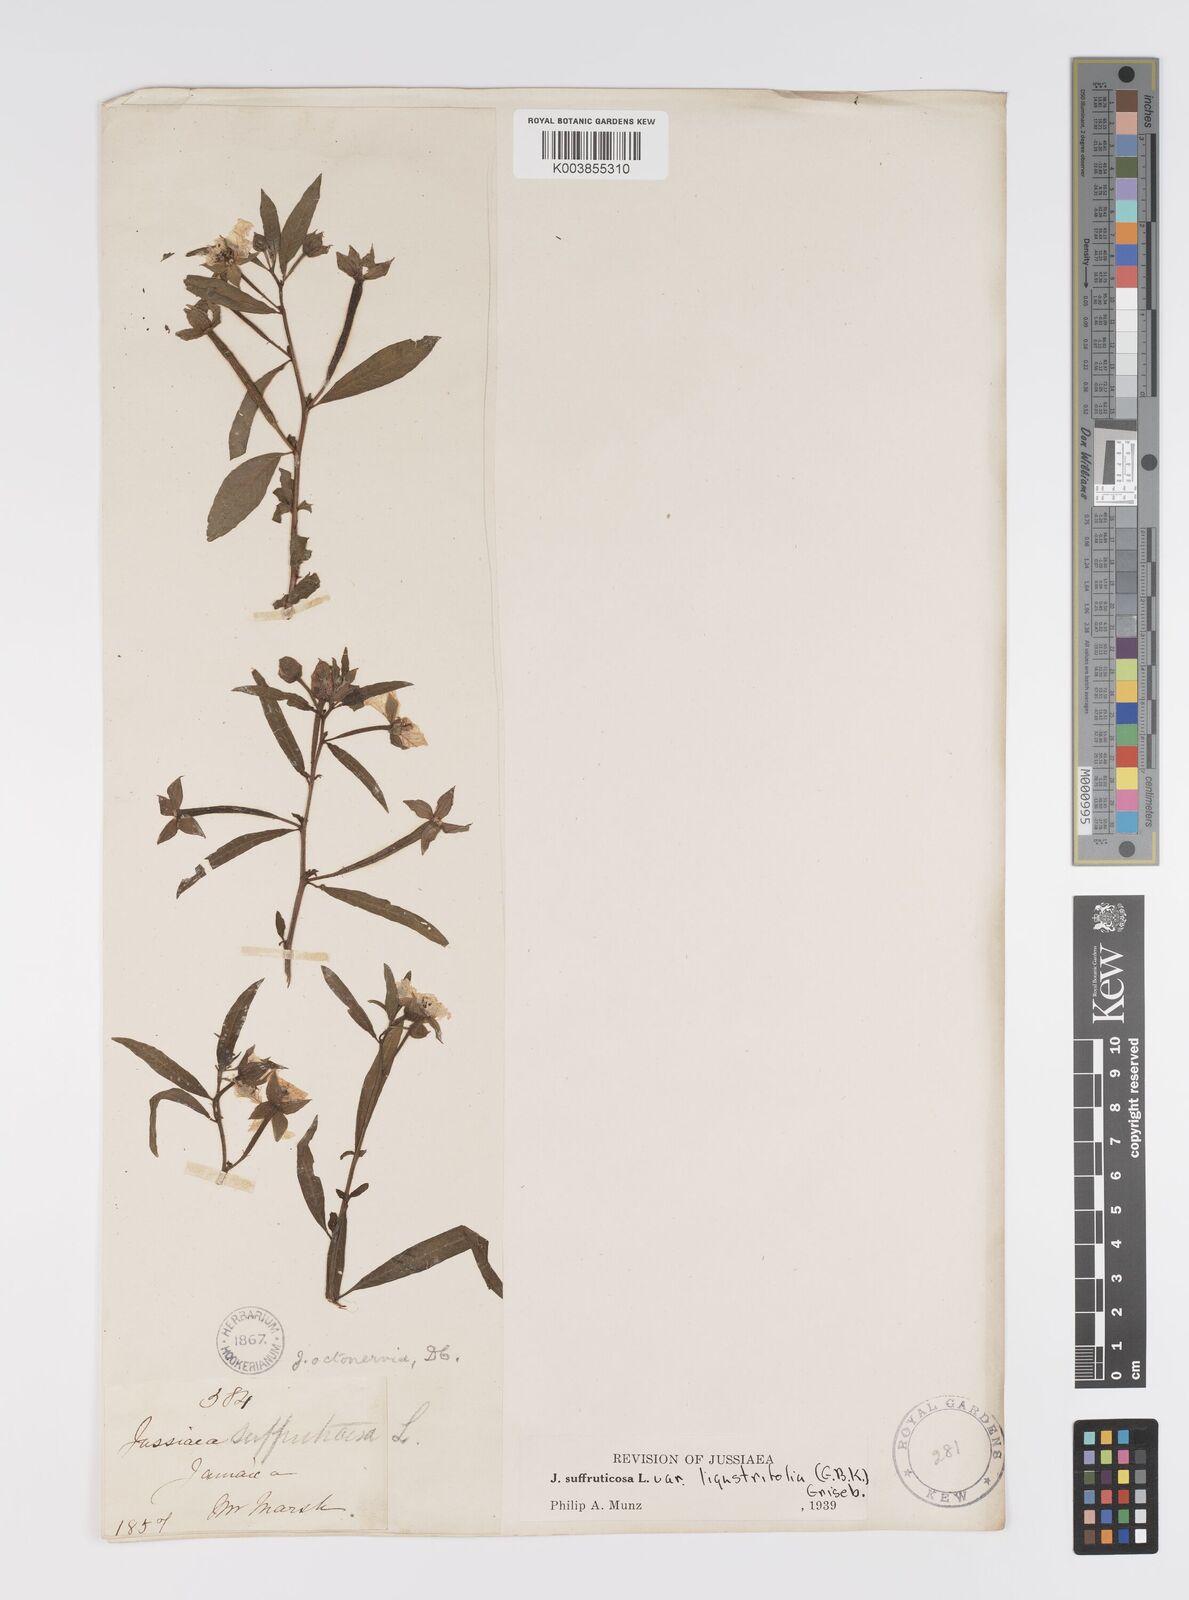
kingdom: Plantae
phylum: Tracheophyta
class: Magnoliopsida
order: Myrtales
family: Onagraceae
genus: Ludwigia
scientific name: Ludwigia
